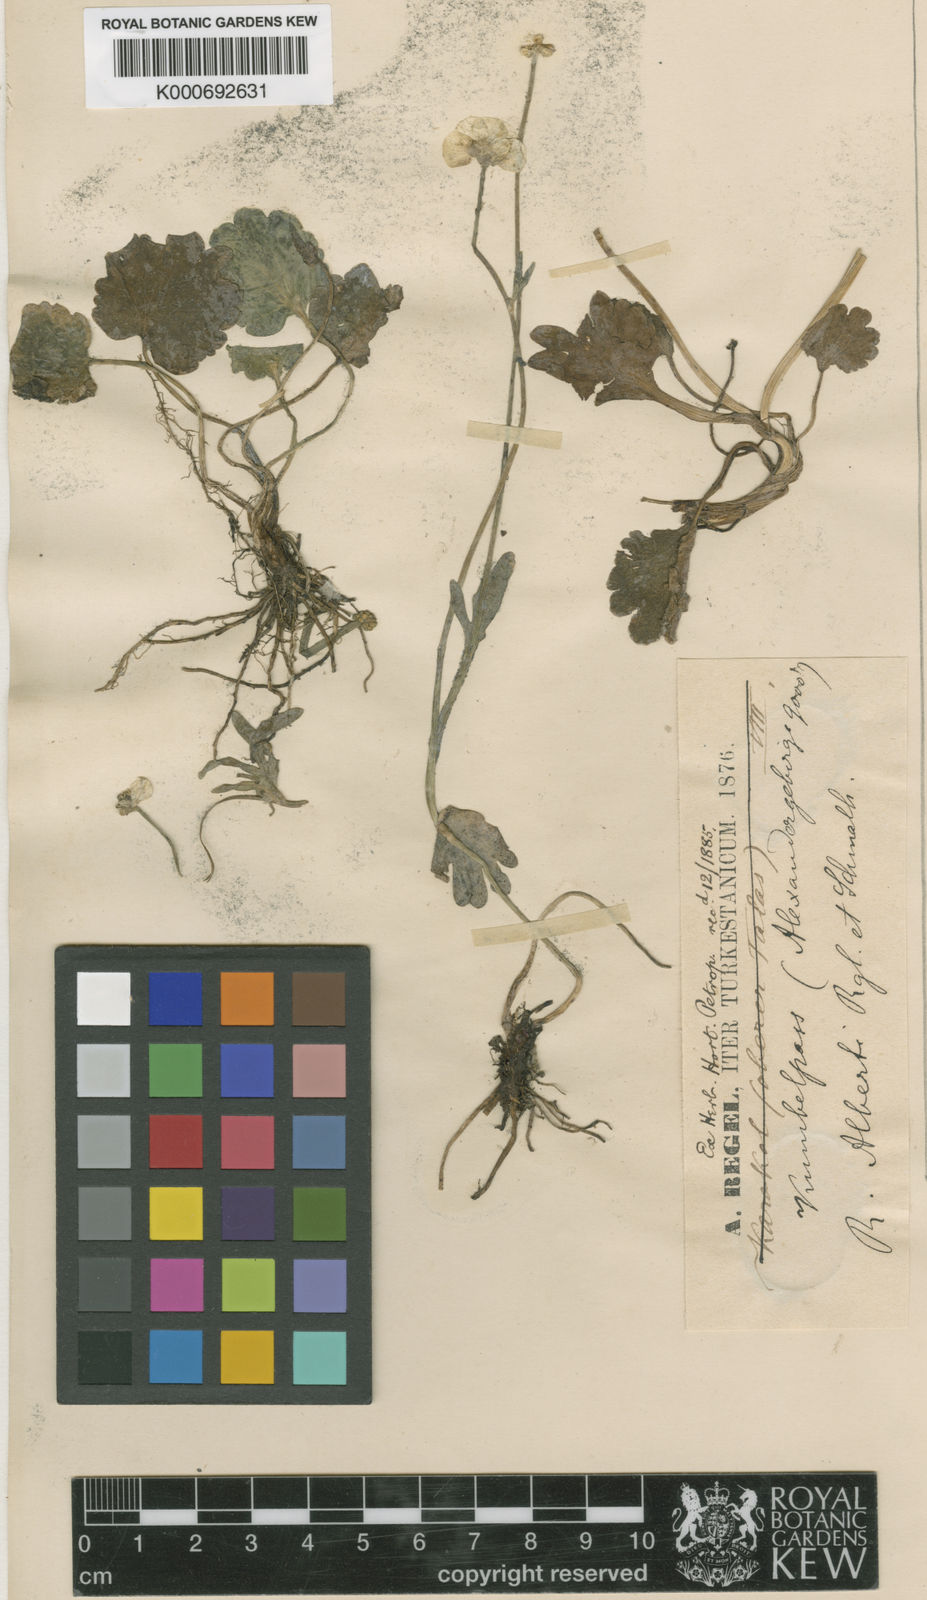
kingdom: Plantae
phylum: Tracheophyta
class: Magnoliopsida
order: Ranunculales
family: Ranunculaceae
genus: Ranunculus
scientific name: Ranunculus alberti
